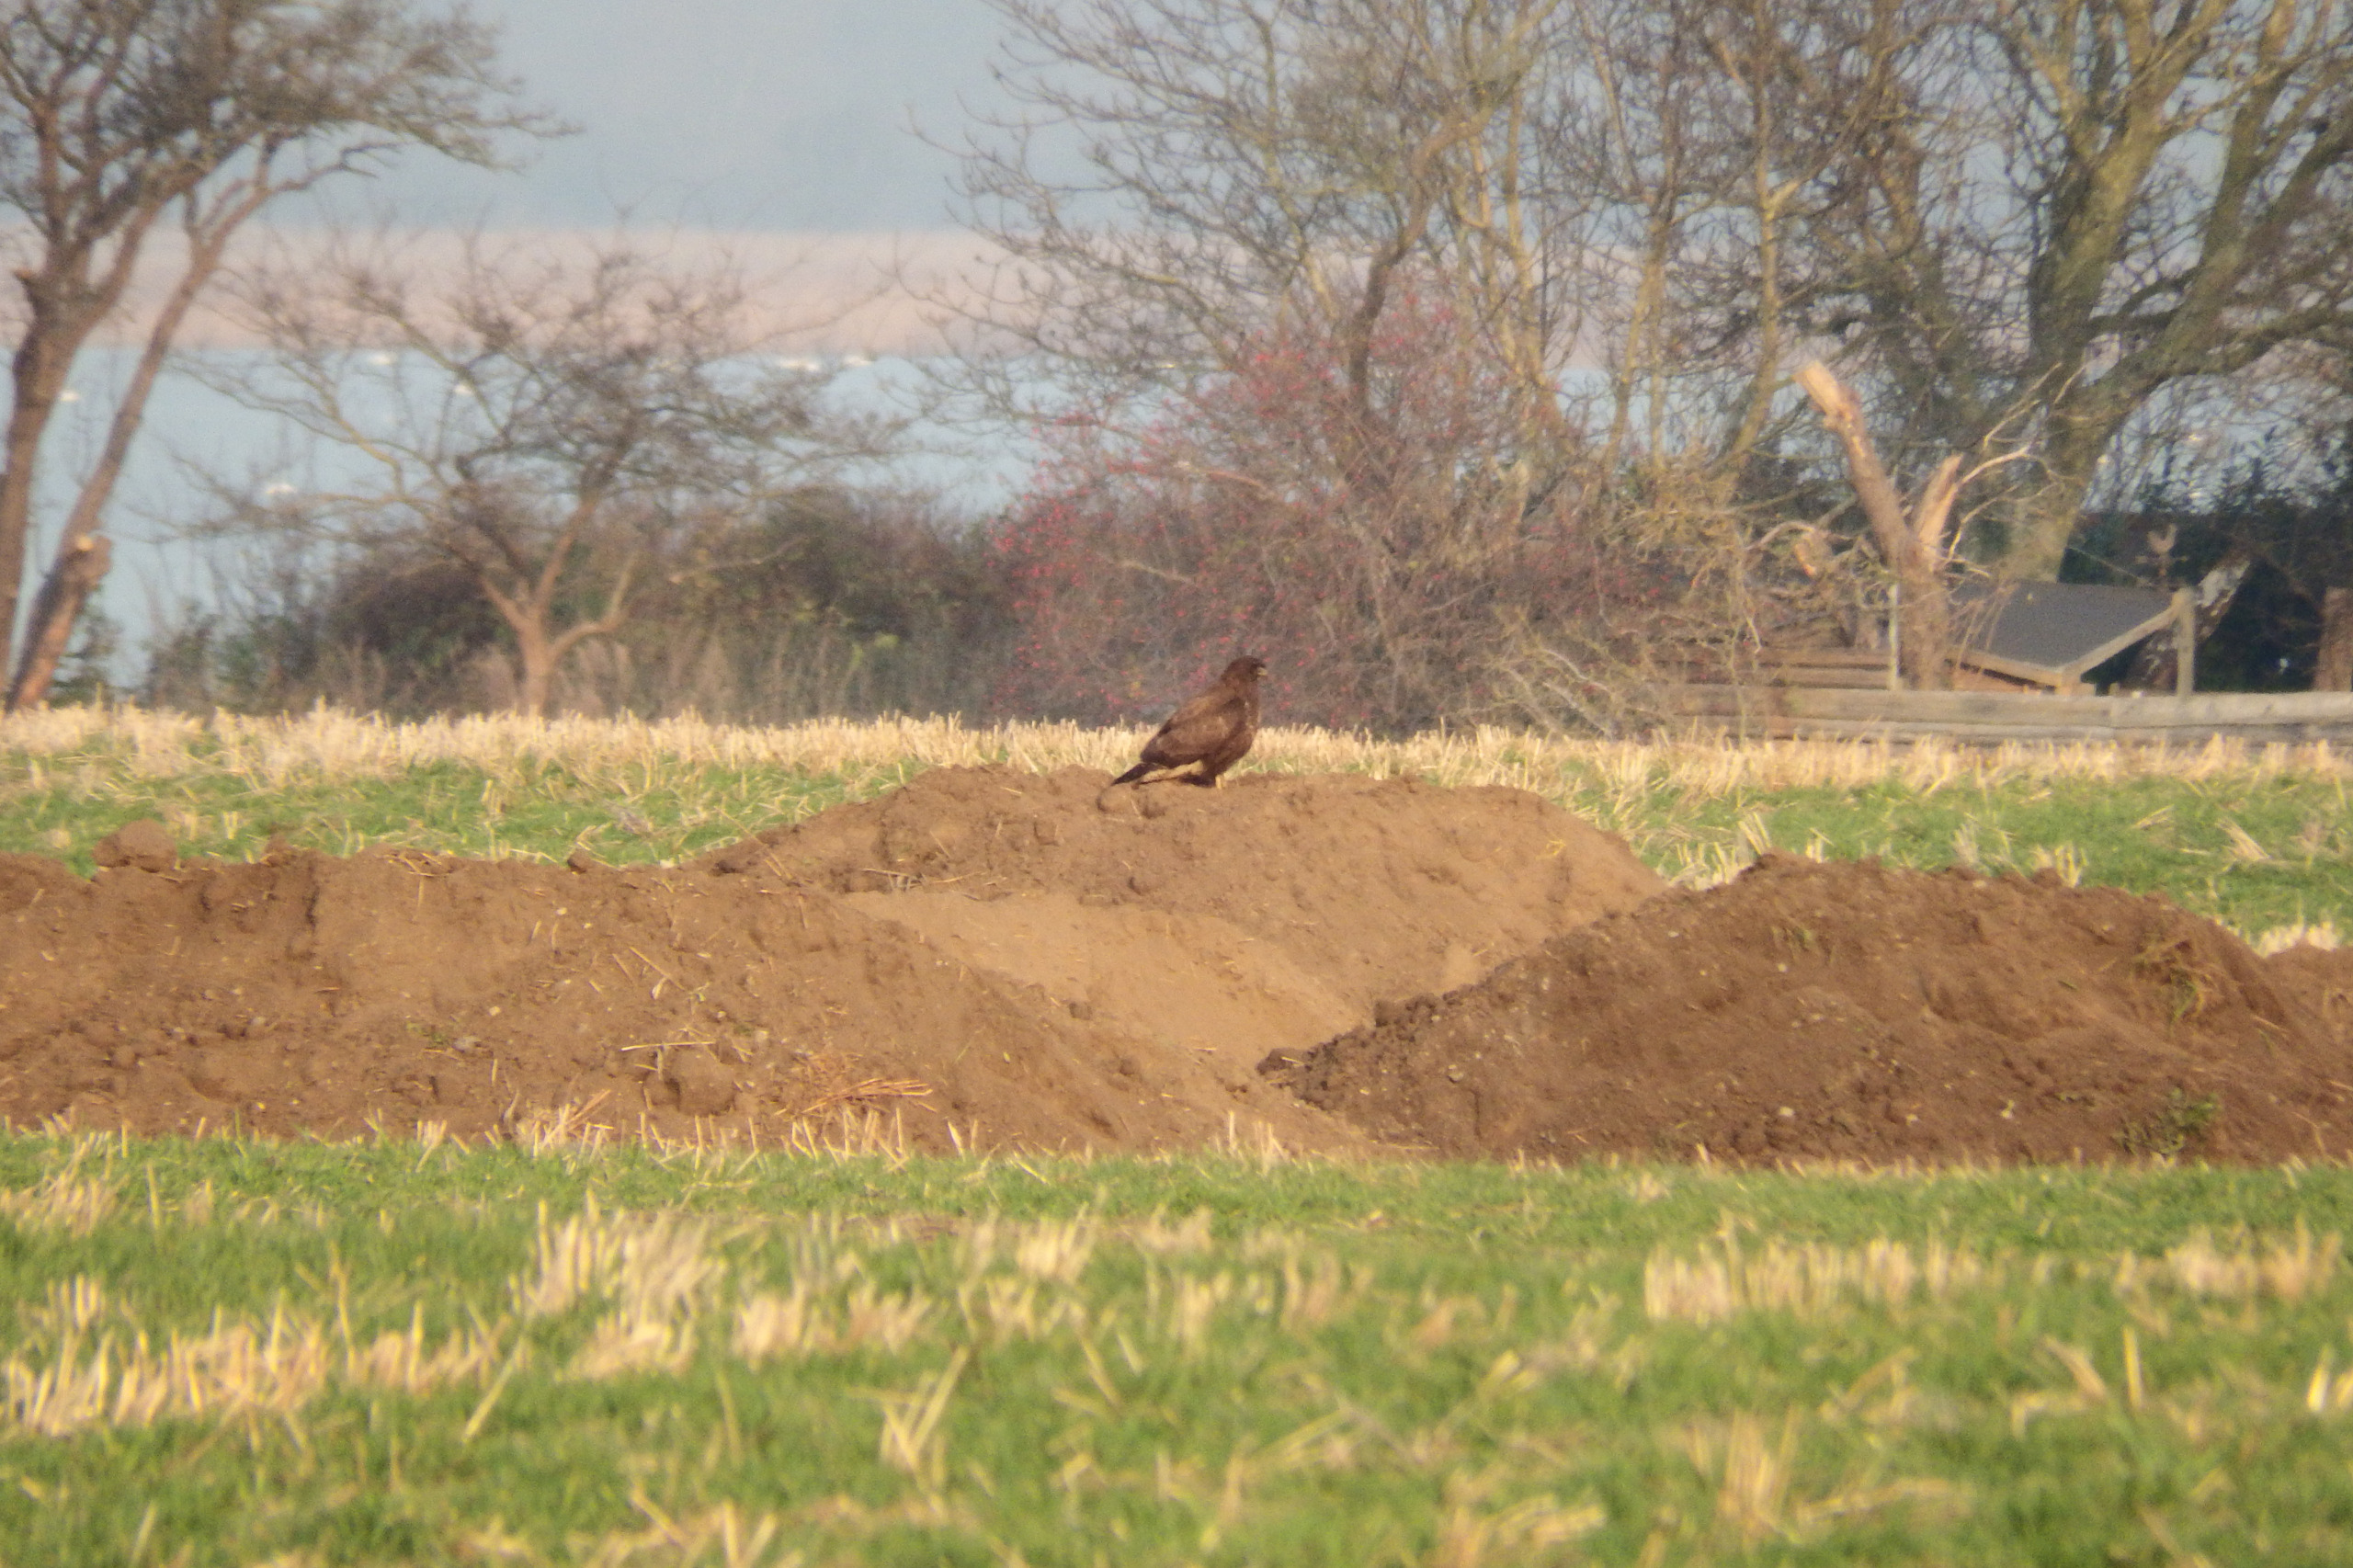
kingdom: Animalia
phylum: Chordata
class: Aves
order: Accipitriformes
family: Accipitridae
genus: Buteo
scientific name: Buteo buteo
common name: Musvåge
